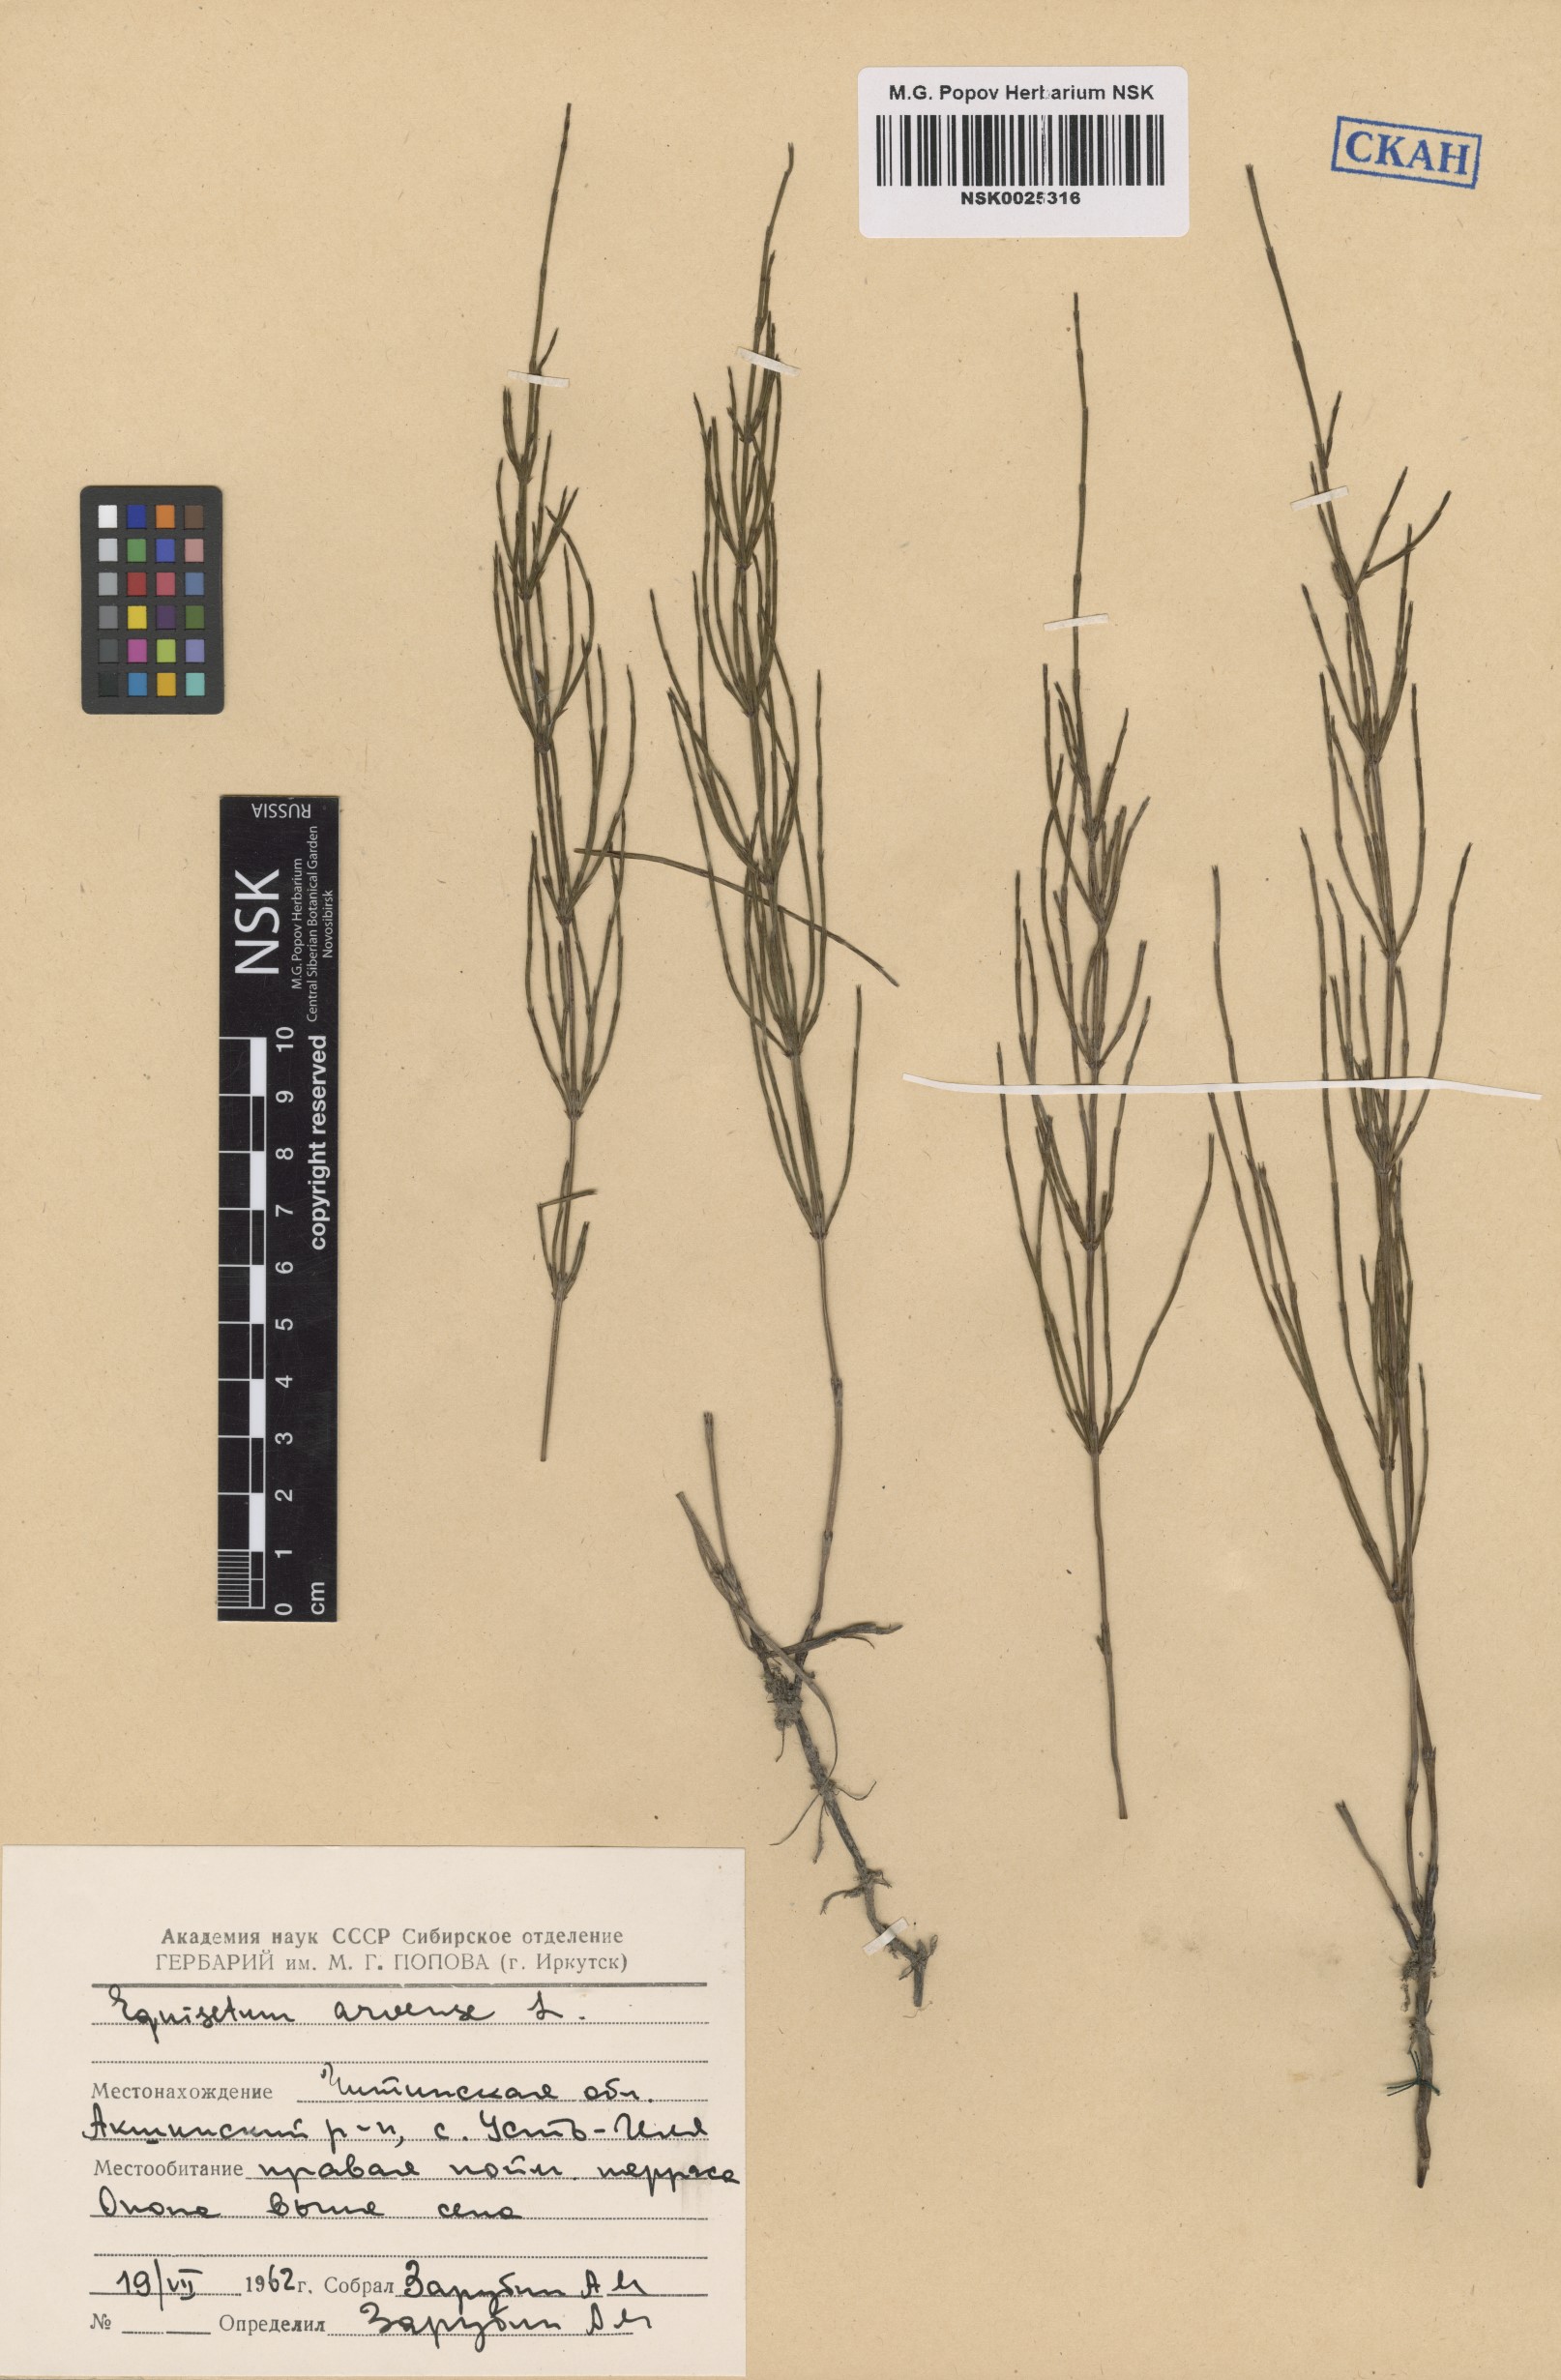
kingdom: Plantae
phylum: Tracheophyta
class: Polypodiopsida
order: Equisetales
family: Equisetaceae
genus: Equisetum
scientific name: Equisetum arvense
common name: Field horsetail
